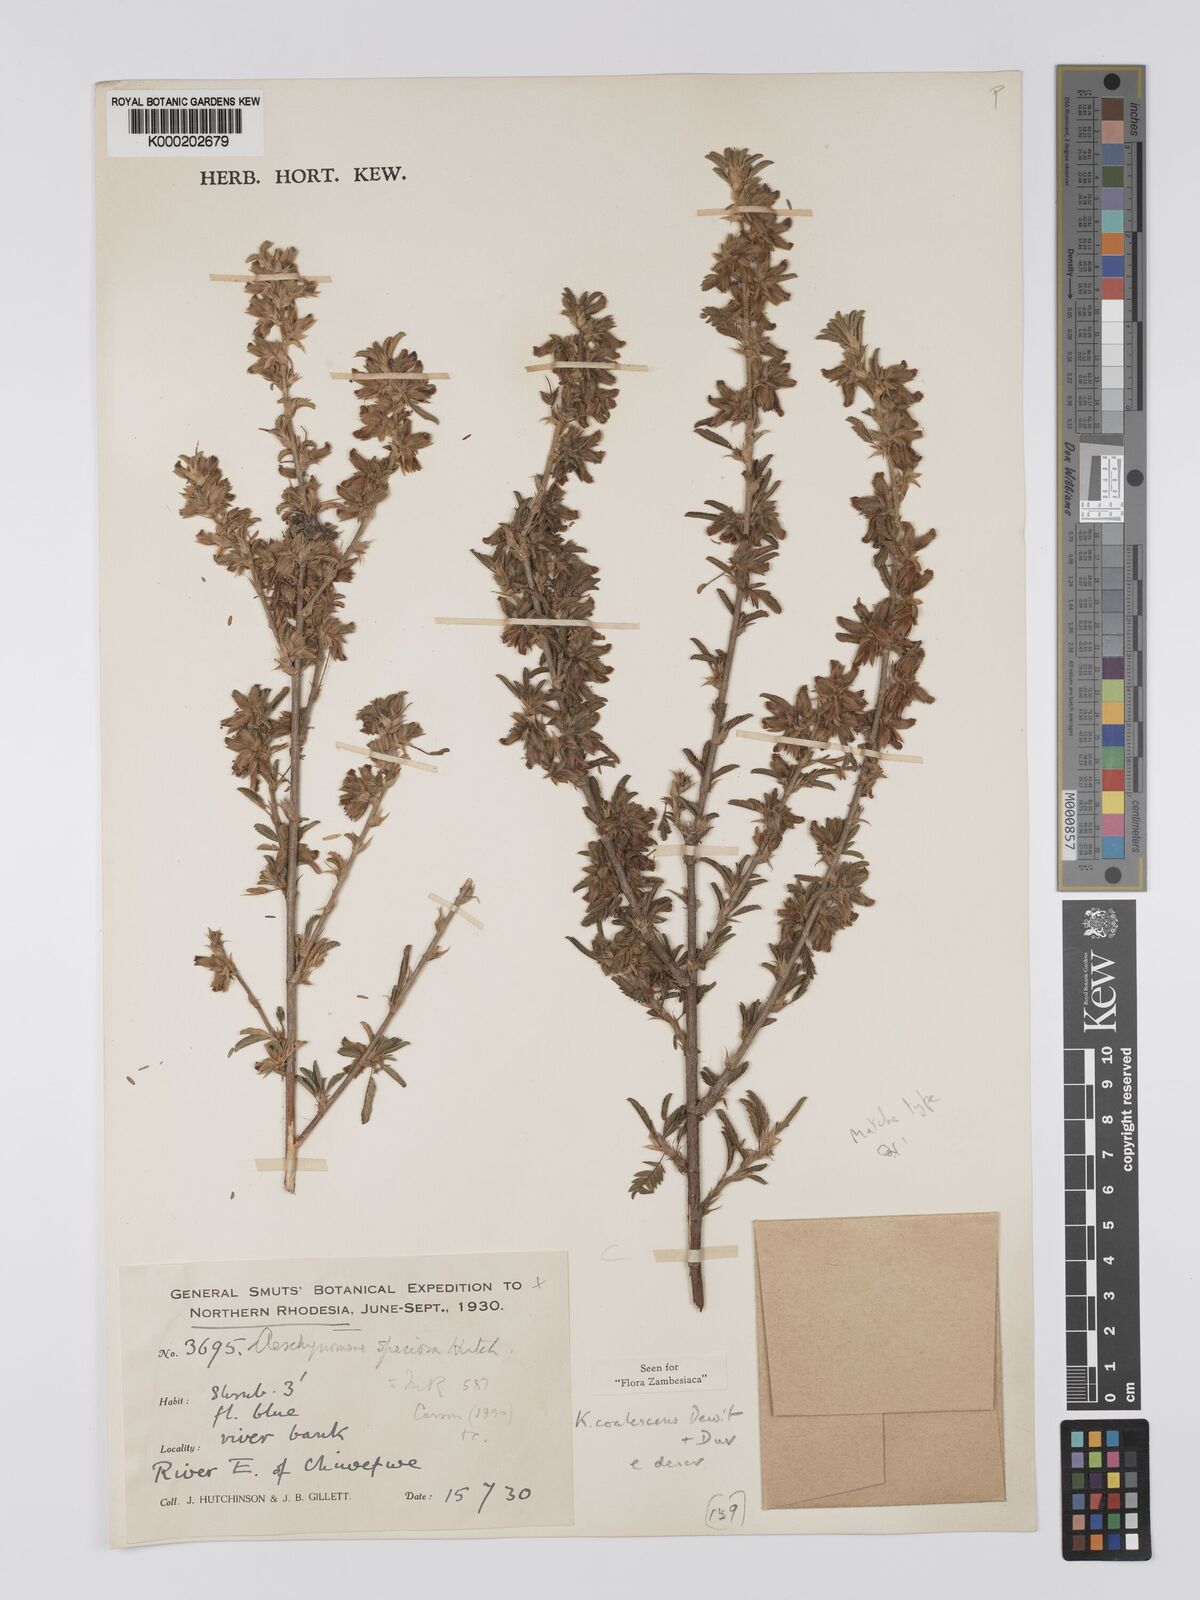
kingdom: Plantae
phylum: Tracheophyta
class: Magnoliopsida
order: Fabales
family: Fabaceae
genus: Kotschya
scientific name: Kotschya coalescens
